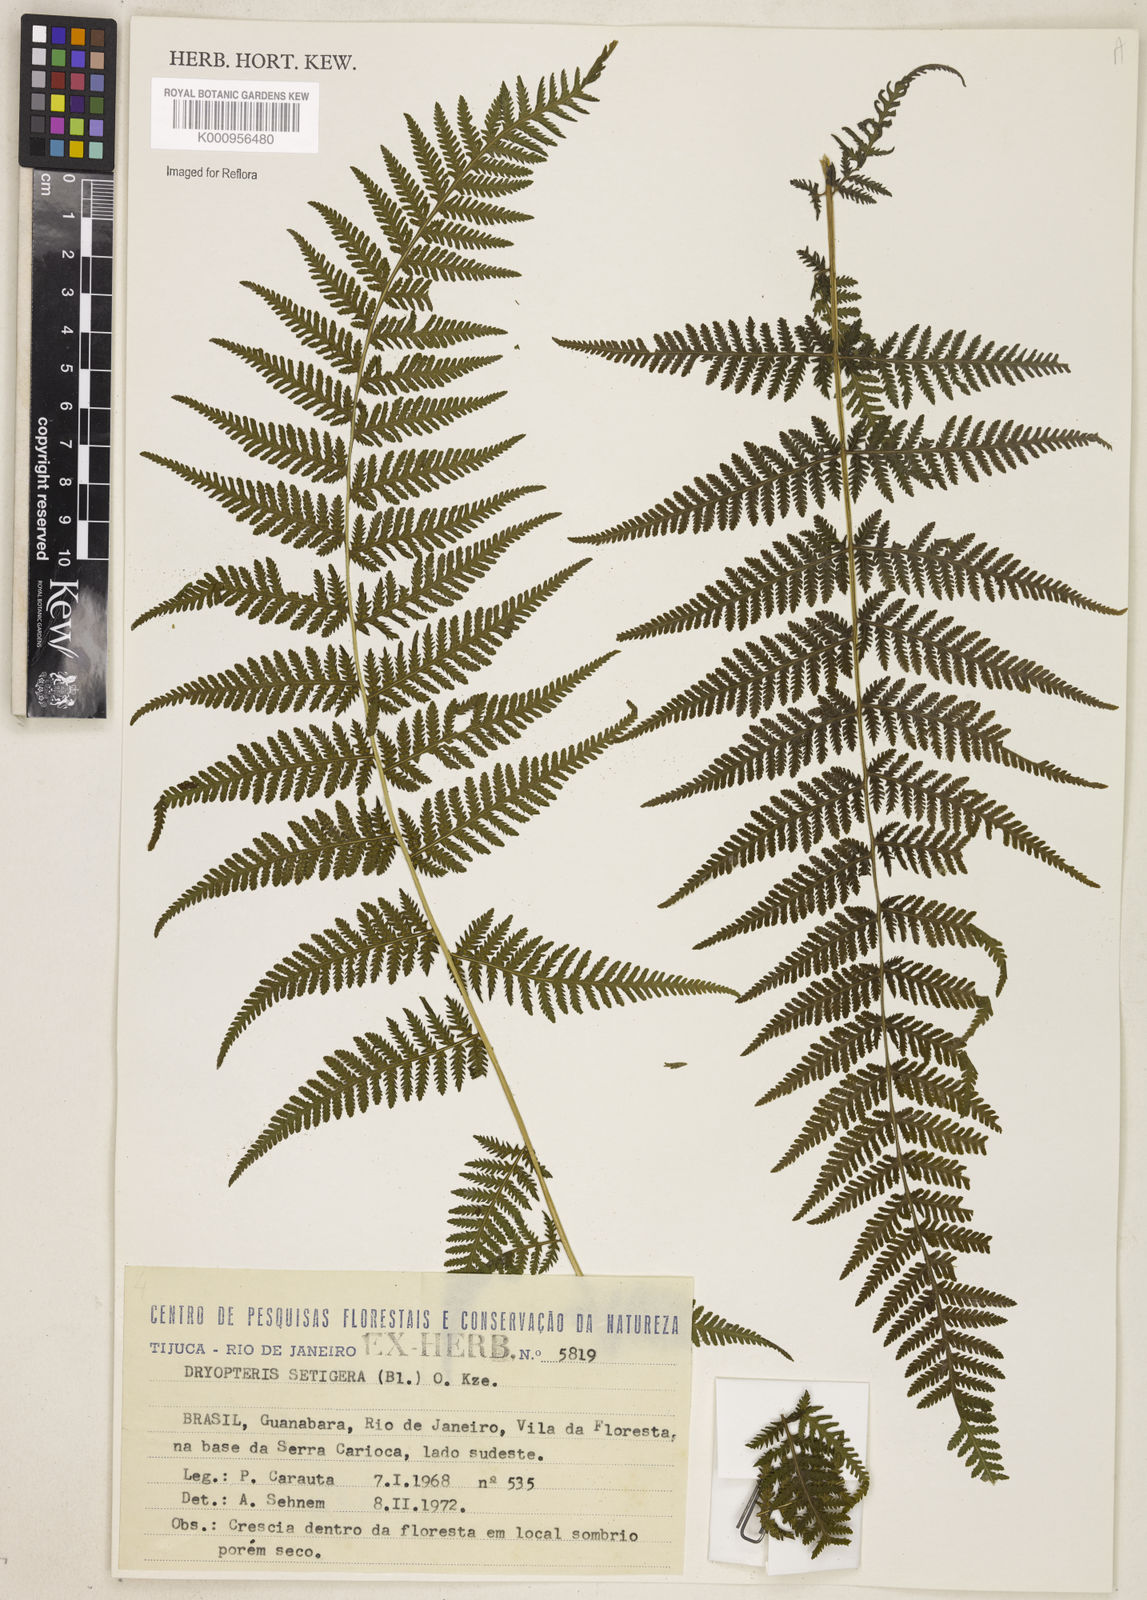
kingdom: Plantae
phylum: Tracheophyta
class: Polypodiopsida
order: Polypodiales
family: Thelypteridaceae
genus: Macrothelypteris
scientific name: Macrothelypteris torresiana
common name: Swordfern
